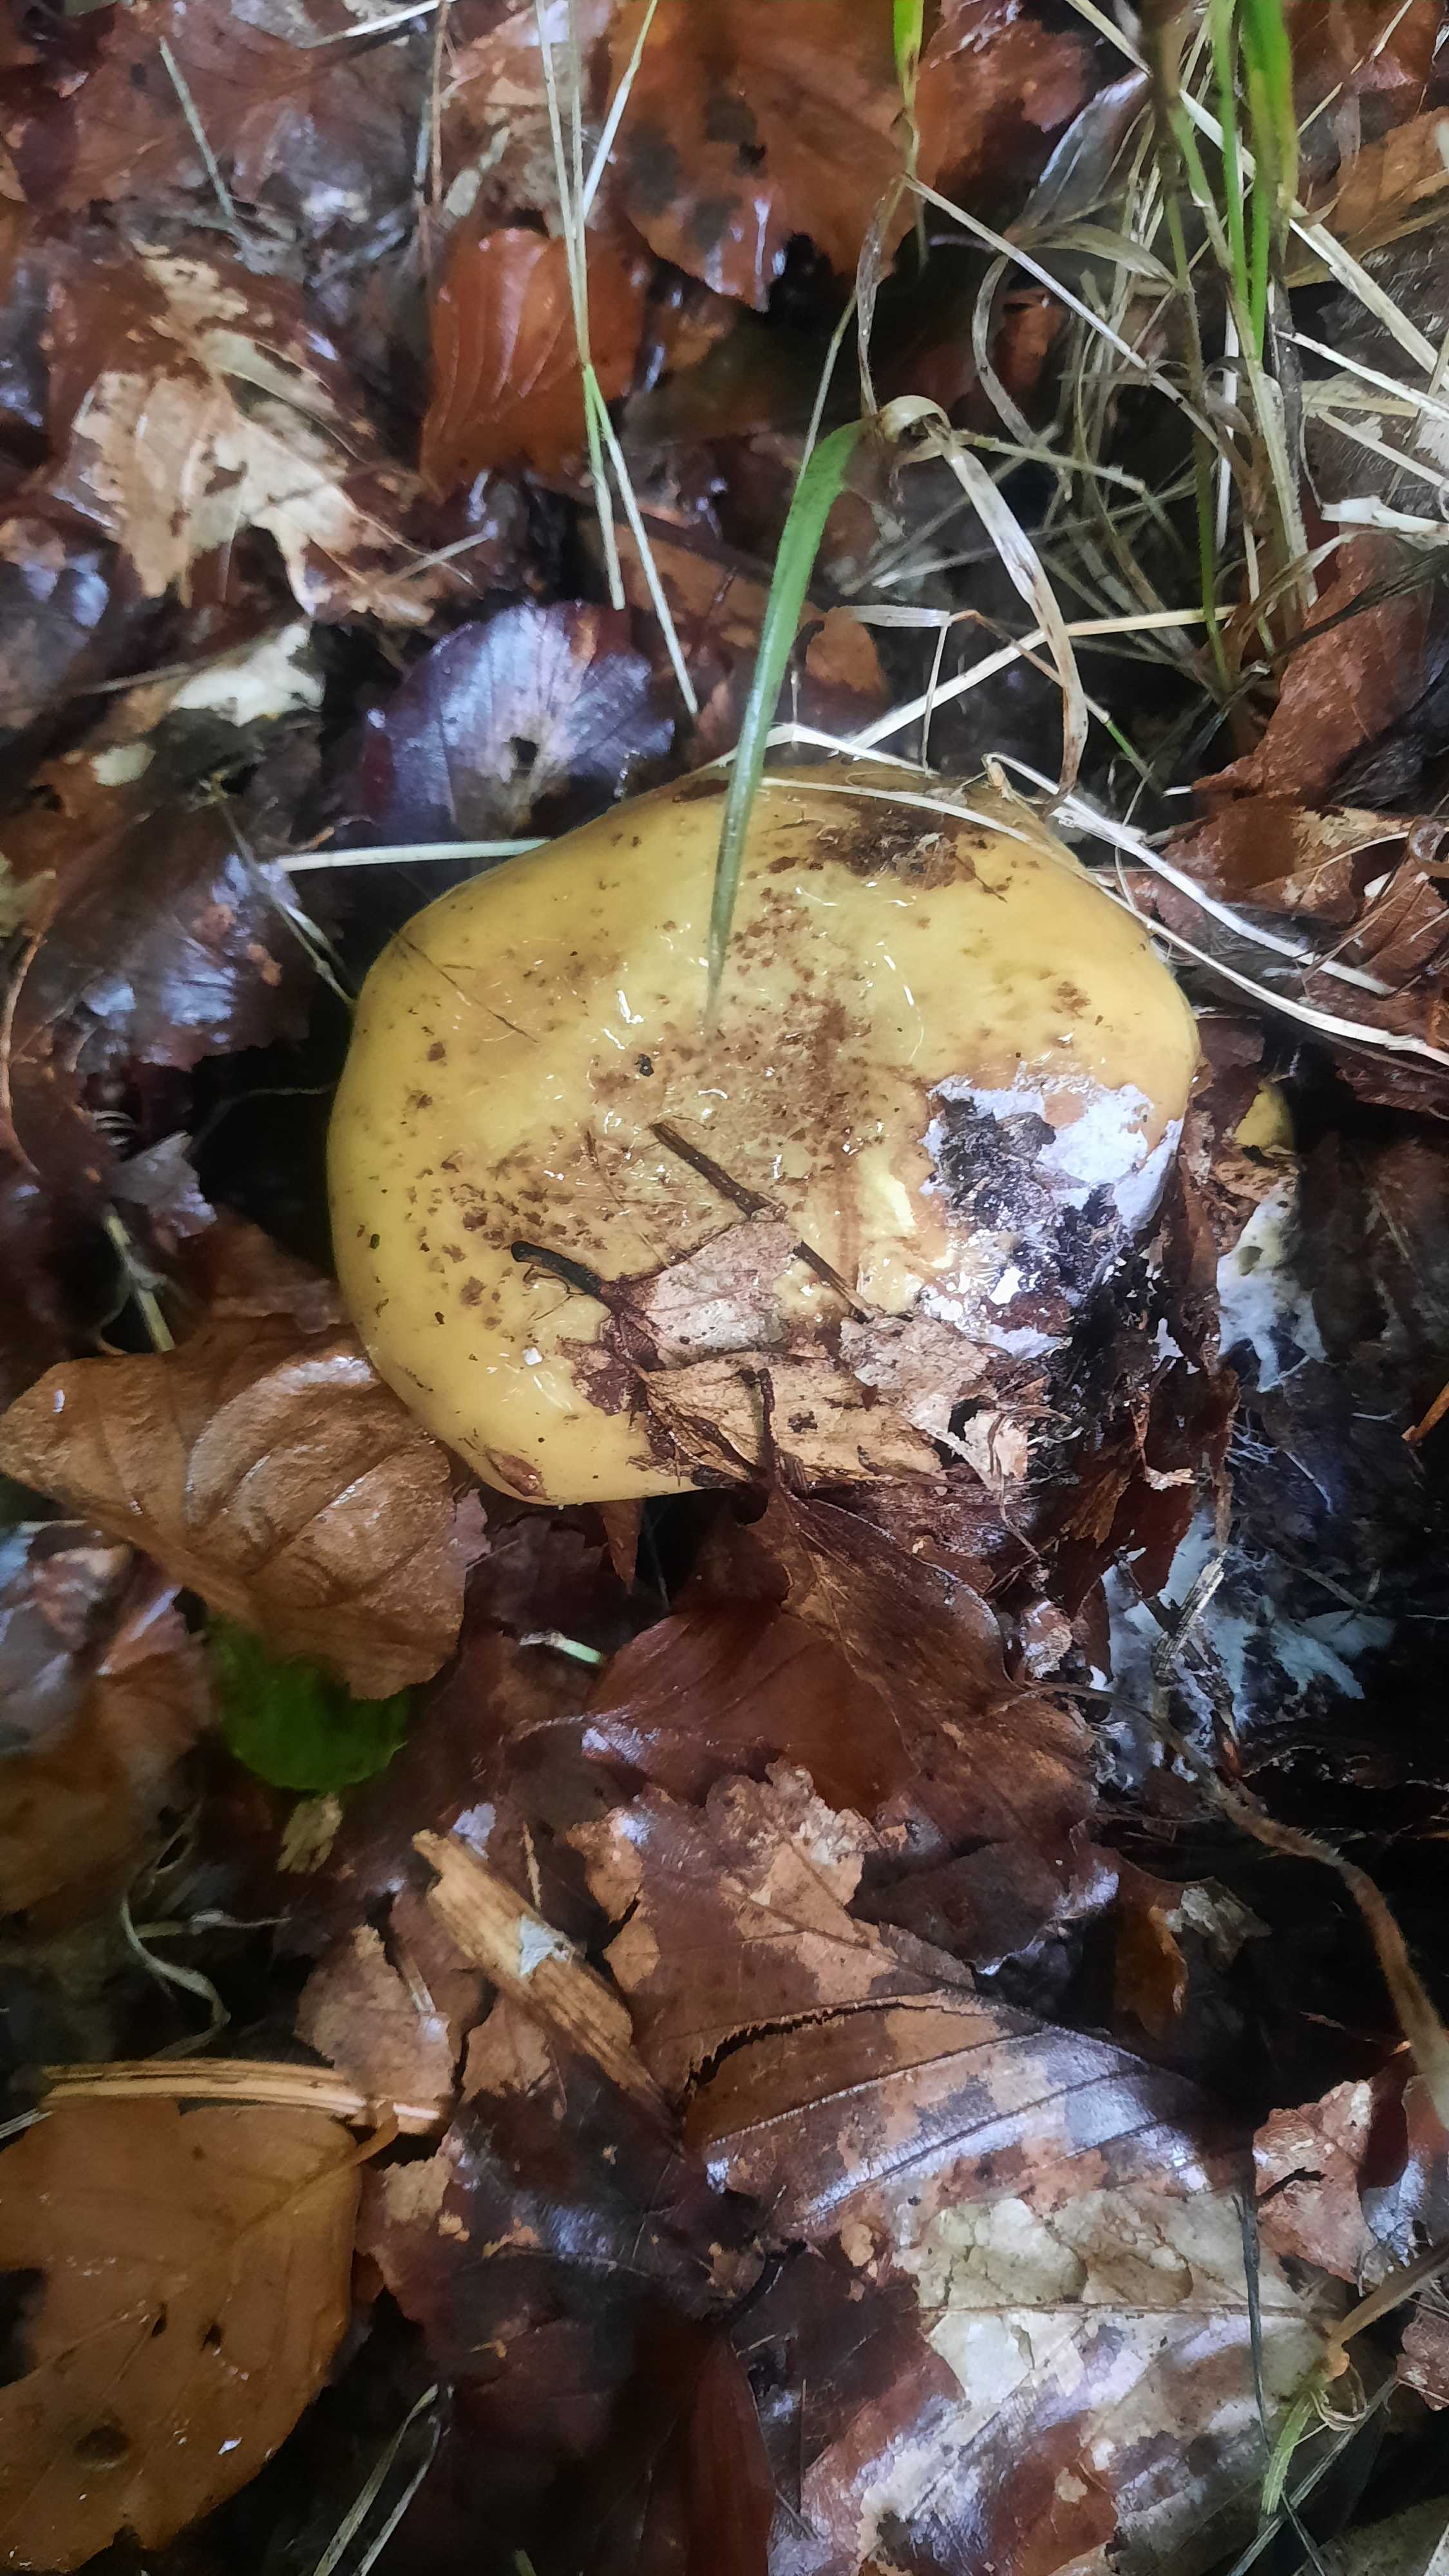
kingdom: Fungi
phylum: Basidiomycota
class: Agaricomycetes
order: Agaricales
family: Cortinariaceae
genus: Calonarius
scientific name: Calonarius citrinus
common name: citrongul slørhat
